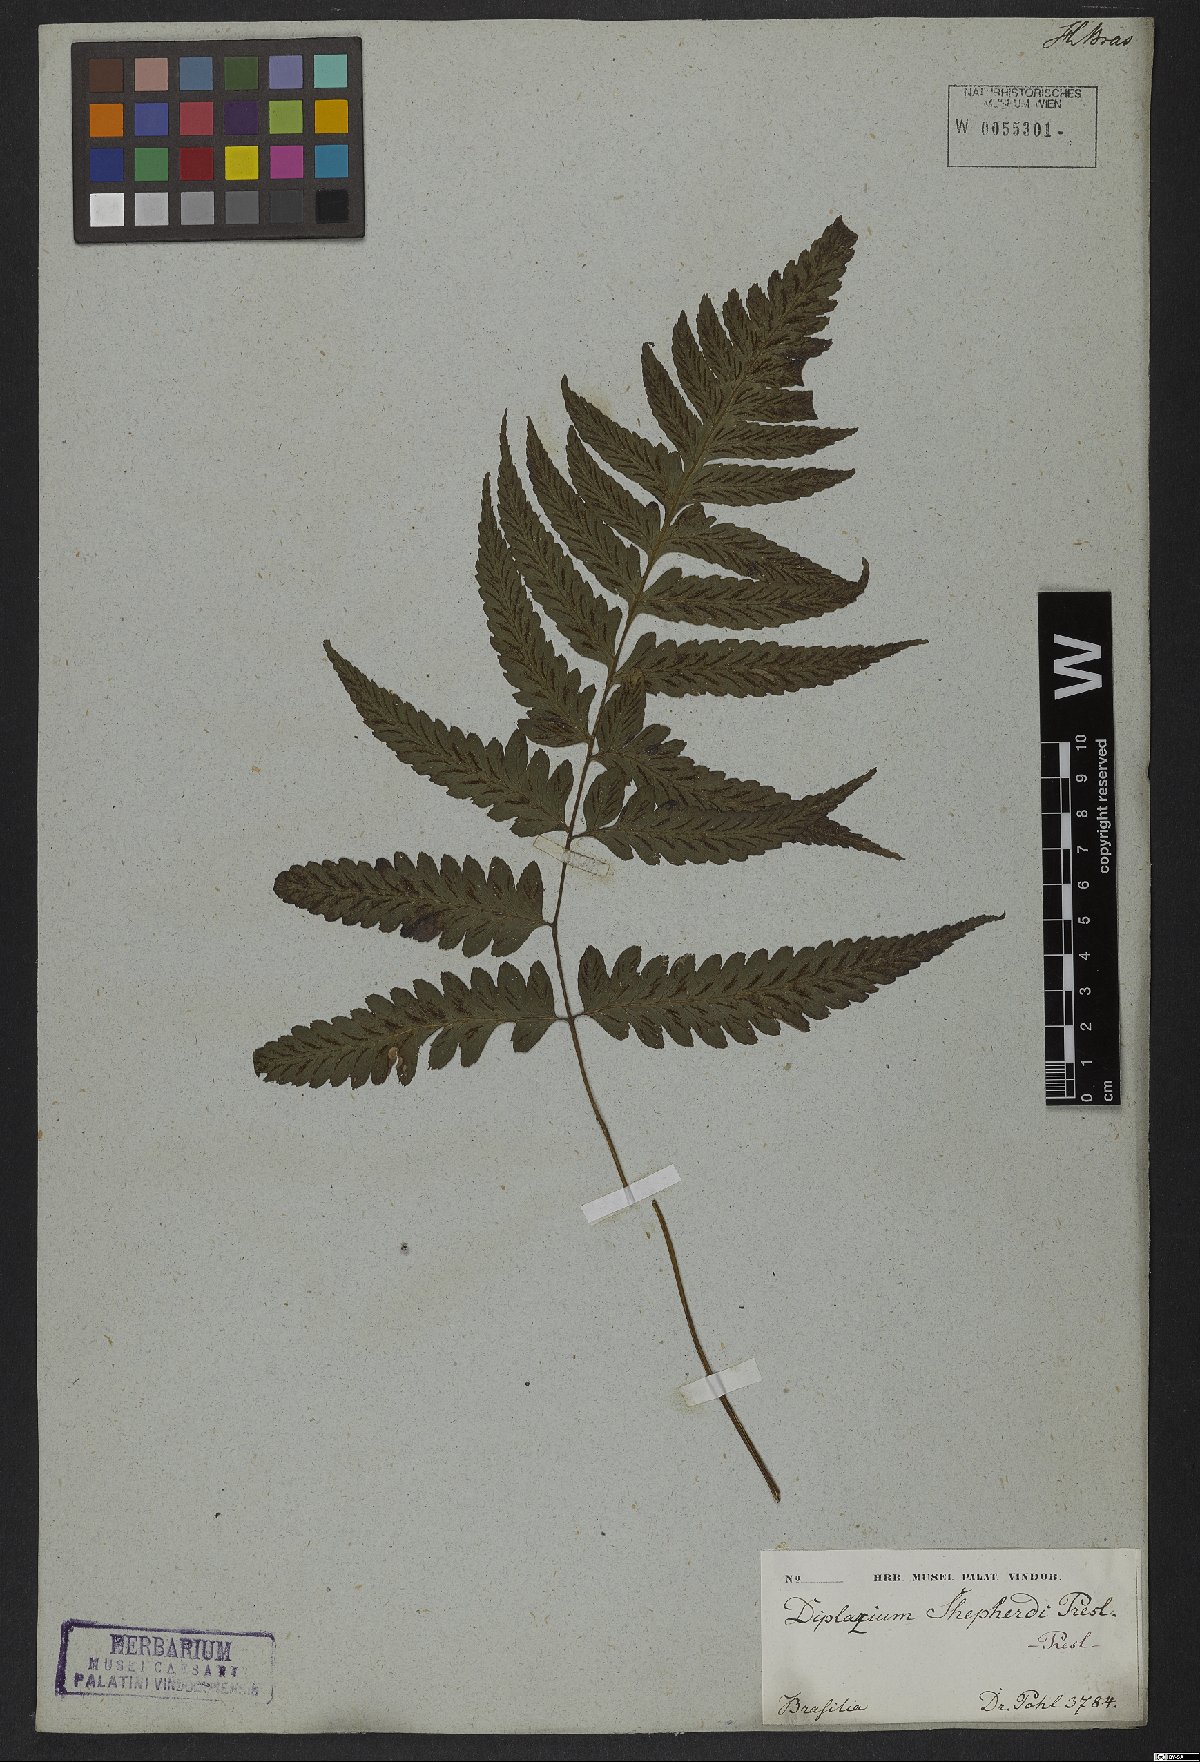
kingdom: Plantae
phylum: Tracheophyta
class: Polypodiopsida
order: Polypodiales
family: Athyriaceae
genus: Diplazium
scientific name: Diplazium cristatum
